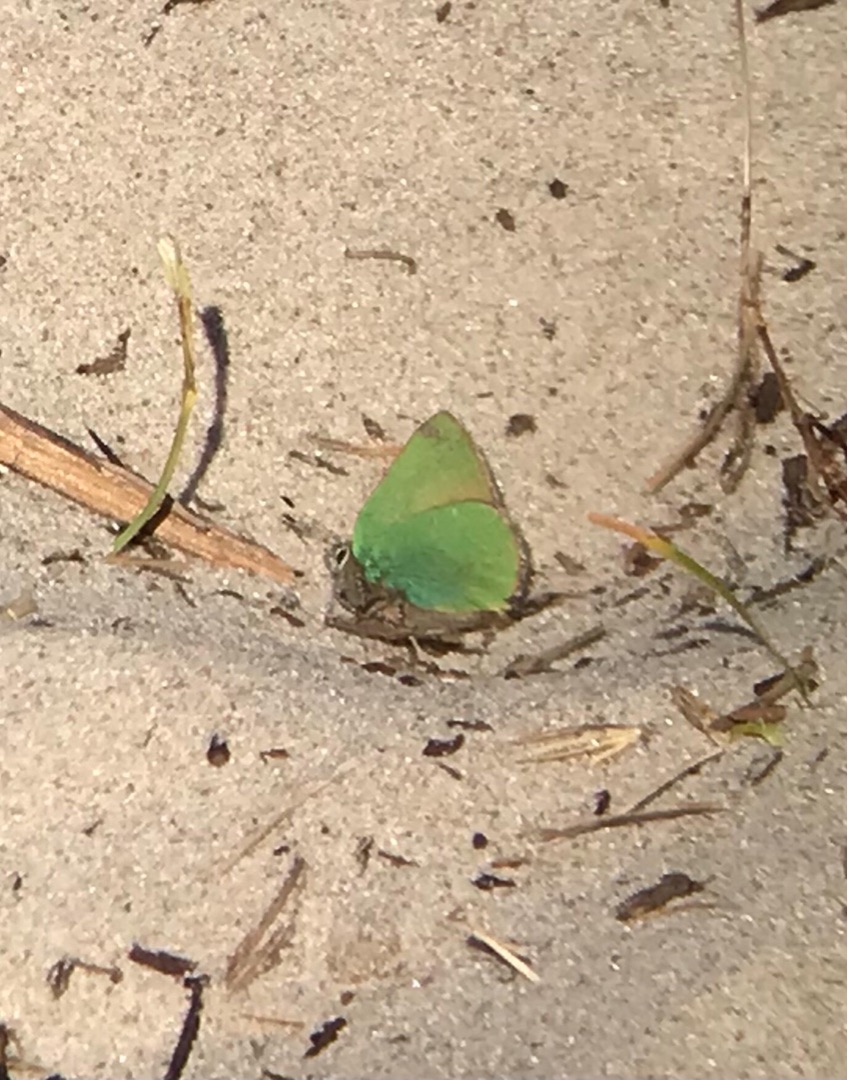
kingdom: Animalia
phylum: Arthropoda
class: Insecta
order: Lepidoptera
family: Lycaenidae
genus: Callophrys
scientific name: Callophrys rubi
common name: Grøn busksommerfugl
